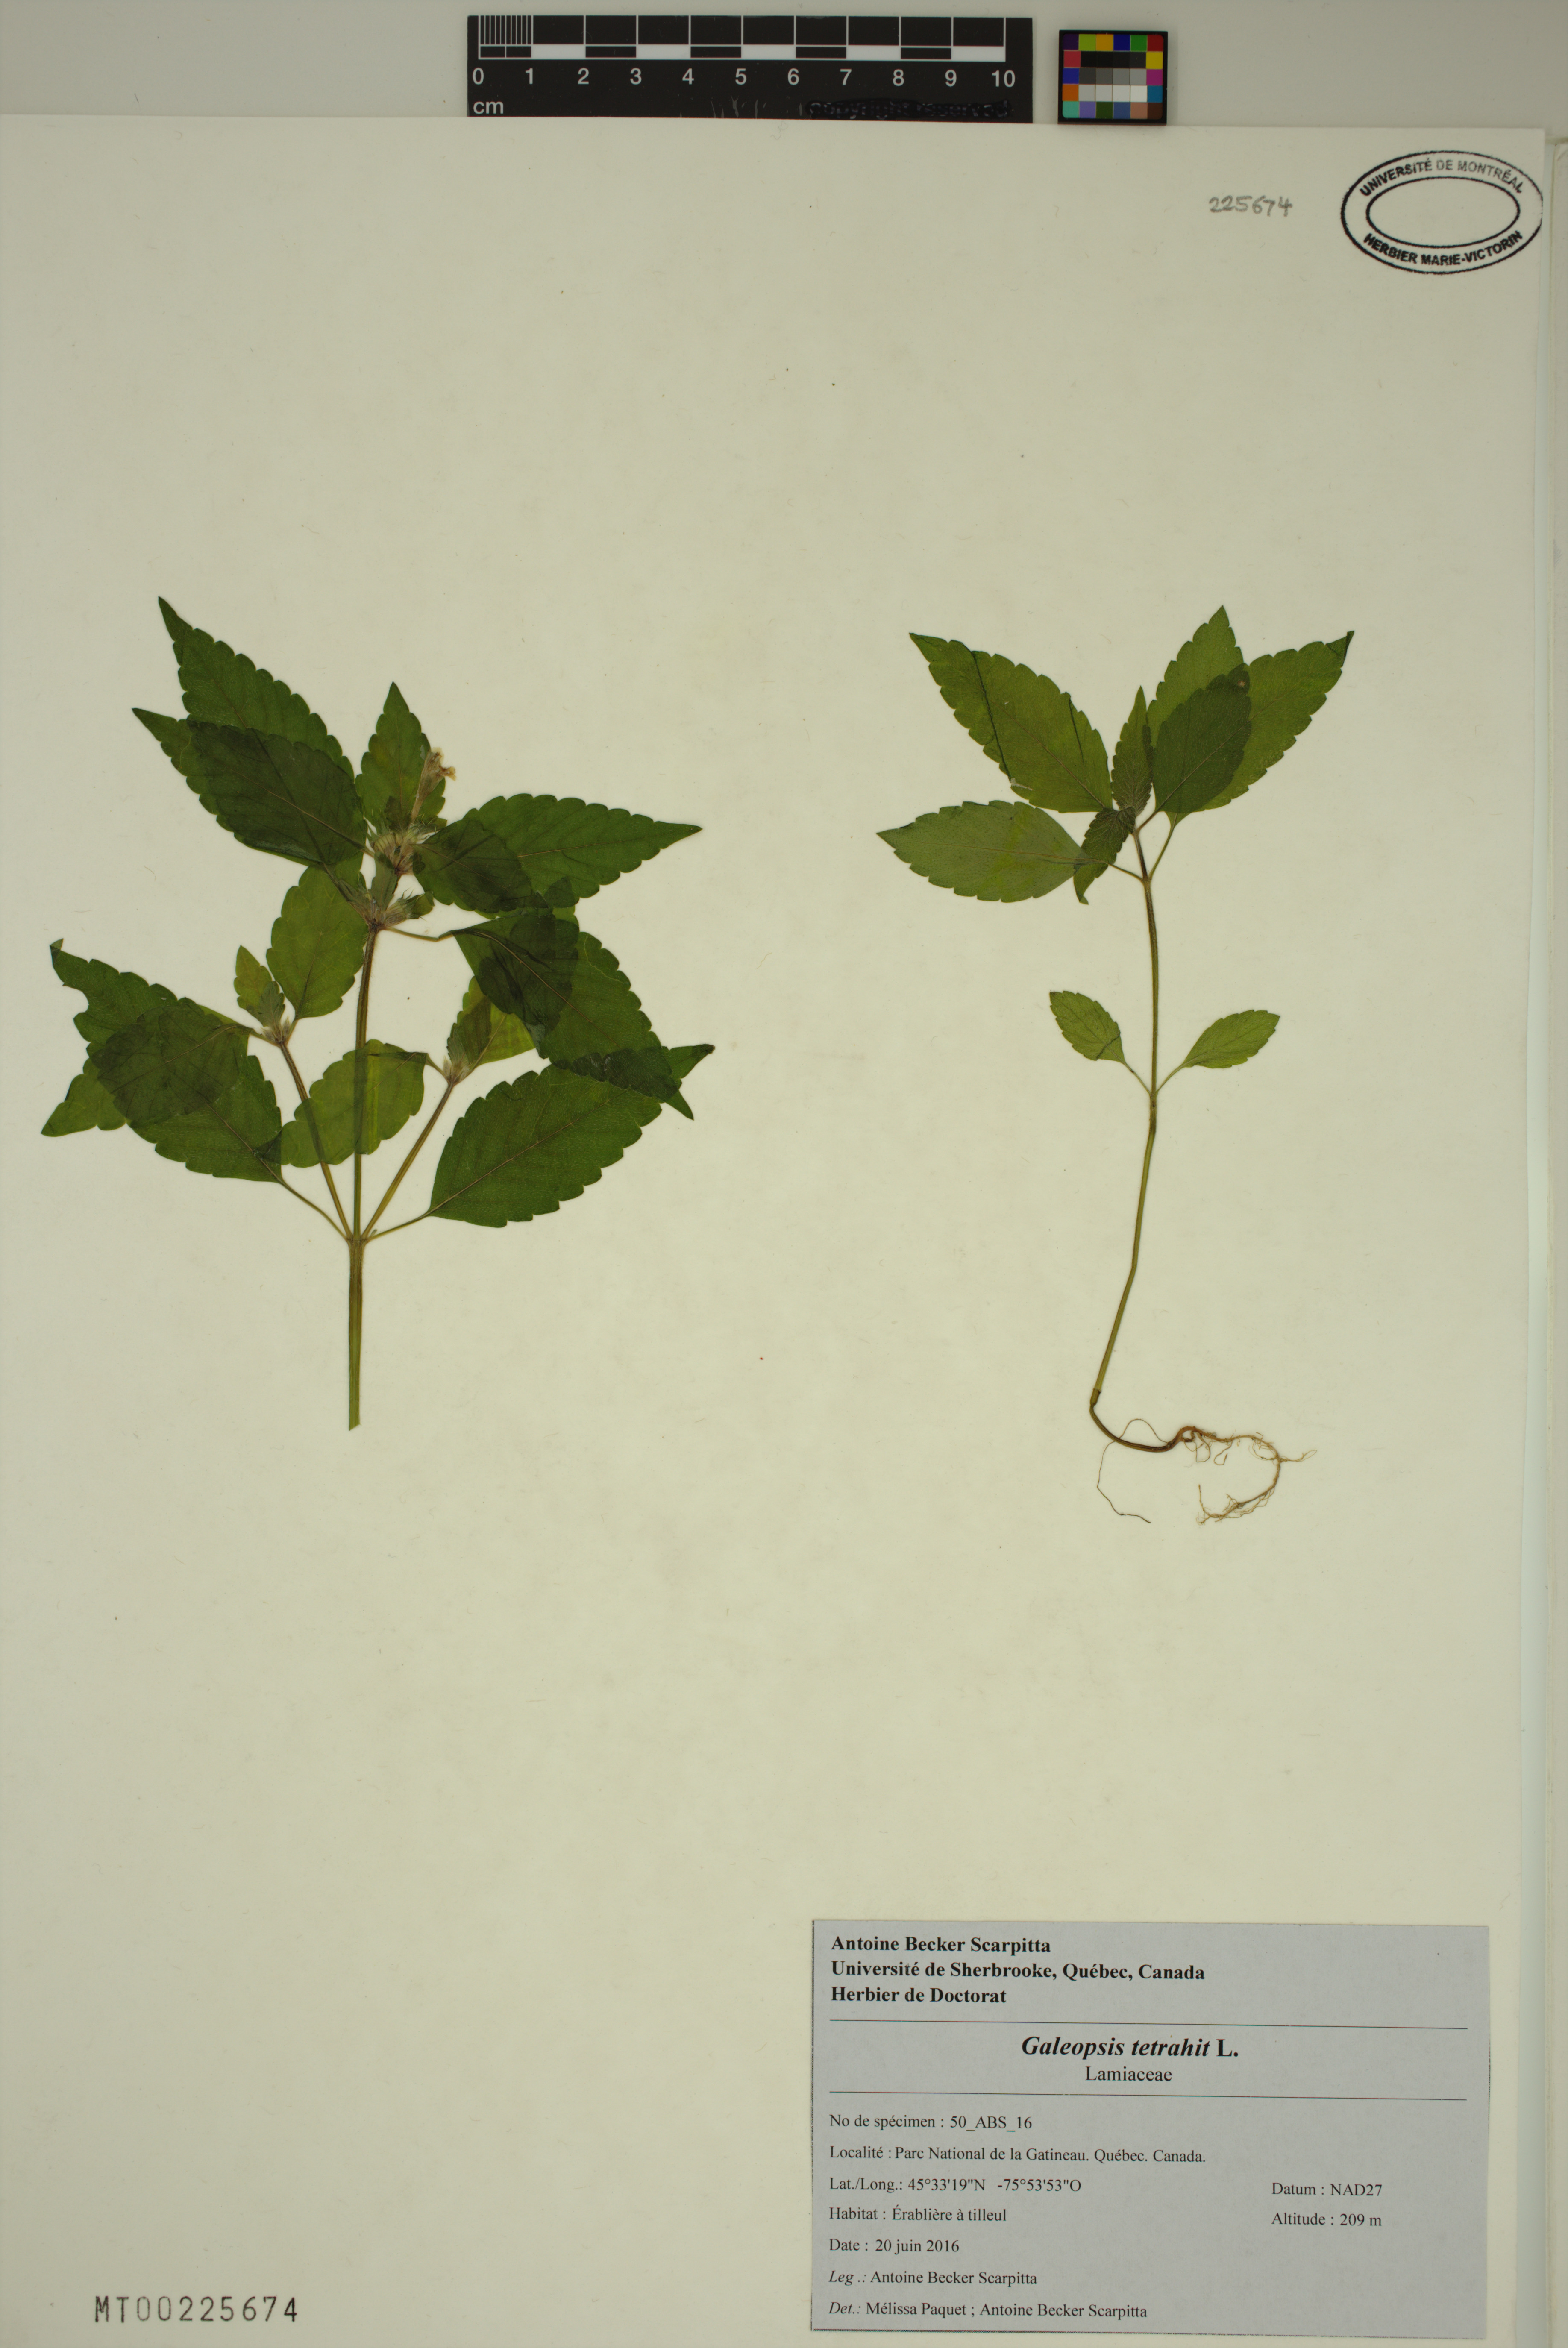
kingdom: Plantae
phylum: Tracheophyta
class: Magnoliopsida
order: Lamiales
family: Lamiaceae
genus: Galeopsis
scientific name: Galeopsis tetrahit
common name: Common hemp-nettle
